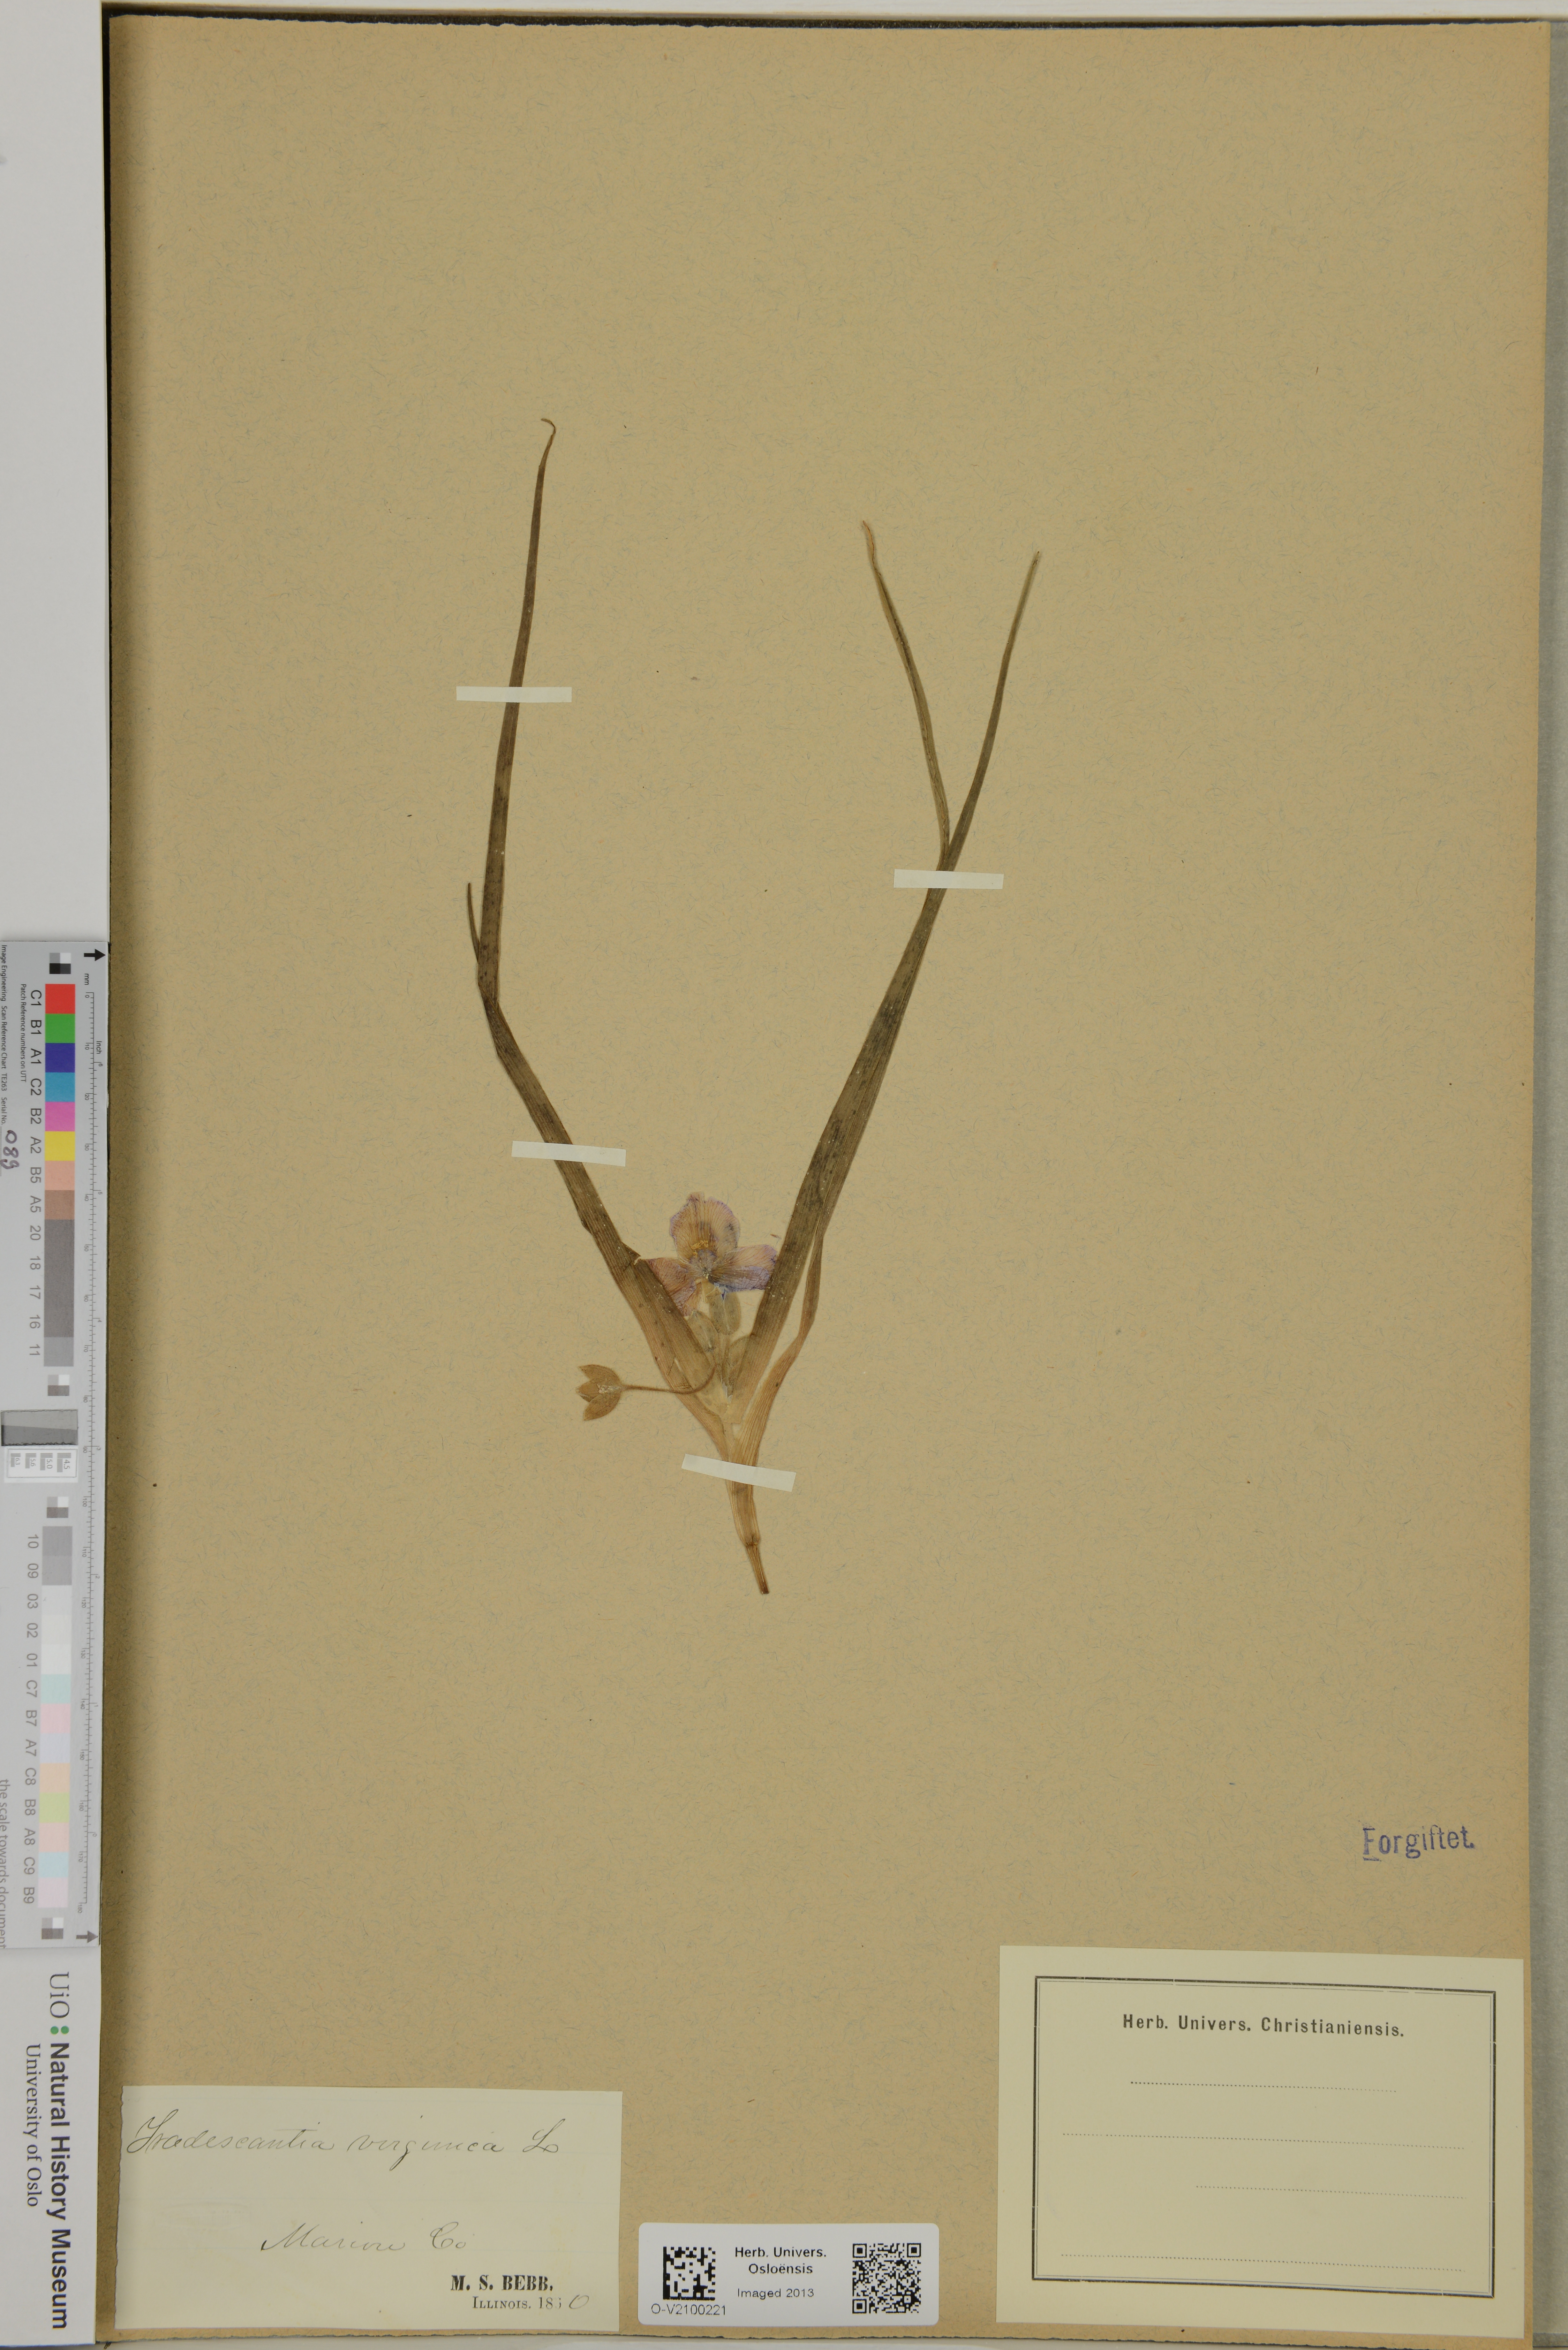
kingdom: Plantae
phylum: Tracheophyta
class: Liliopsida
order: Commelinales
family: Commelinaceae
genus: Tradescantia
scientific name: Tradescantia virginiana
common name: Spiderwort
